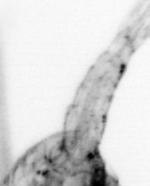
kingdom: Animalia
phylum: Arthropoda
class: Copepoda
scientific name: Copepoda
